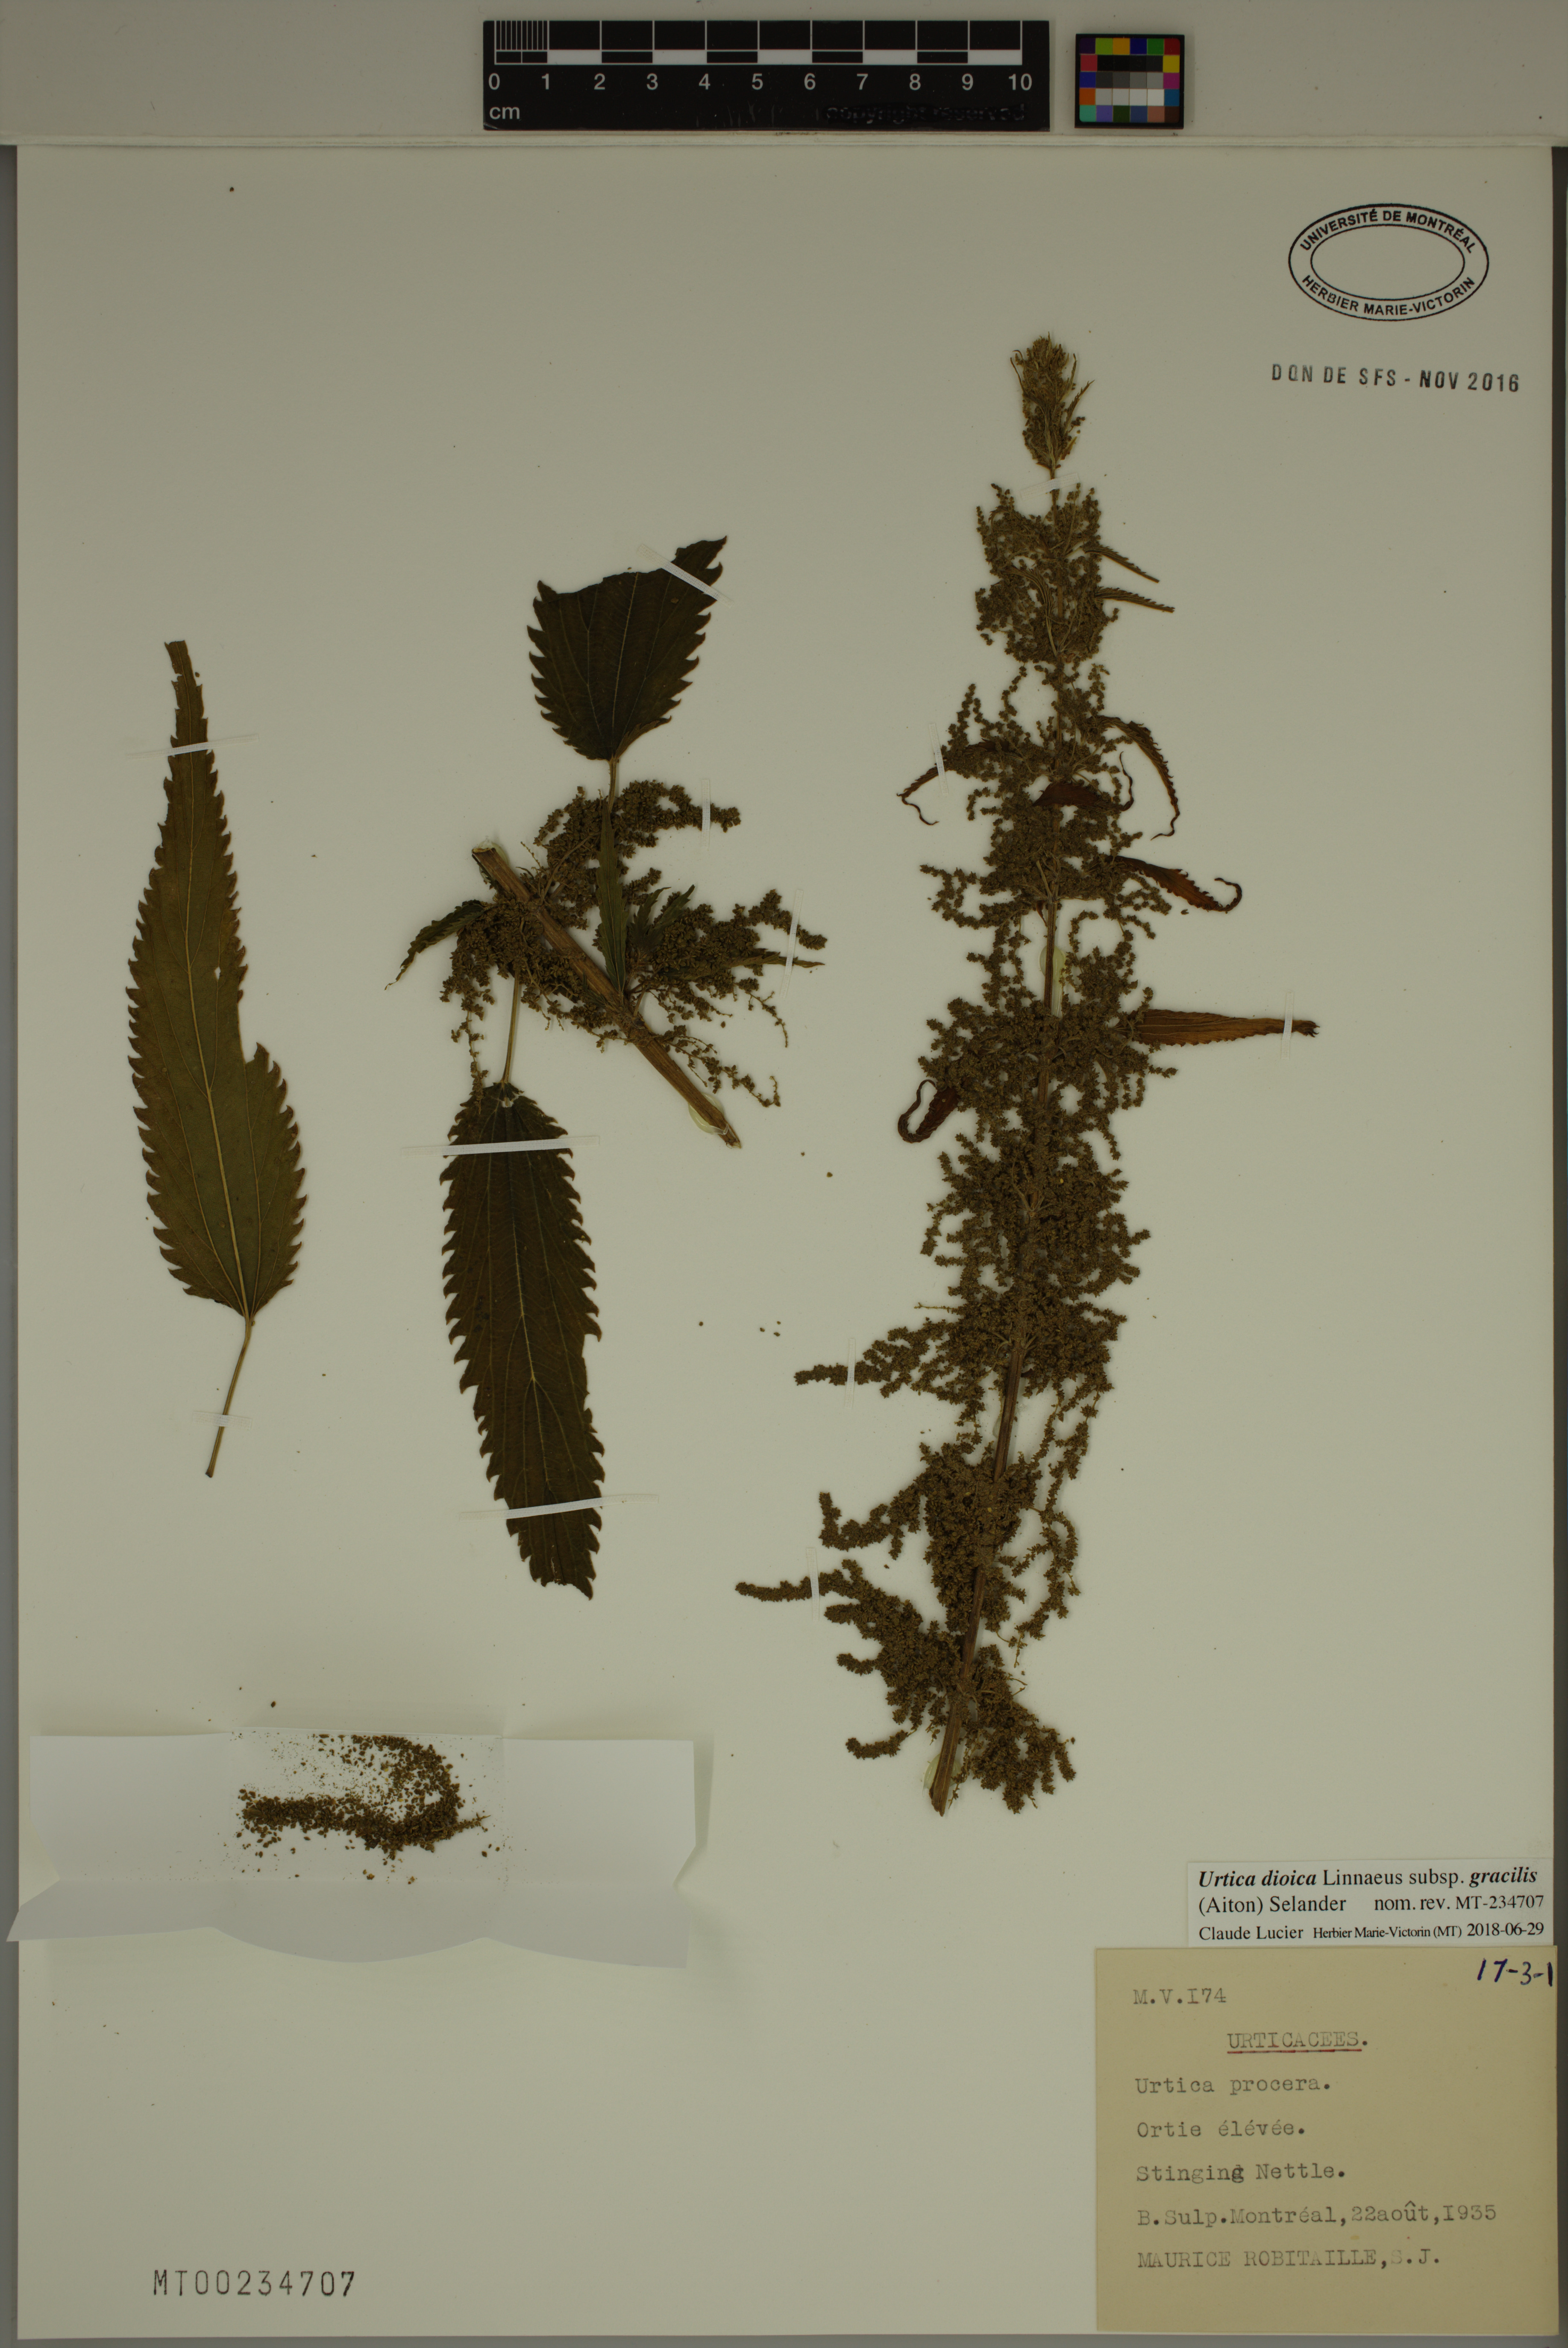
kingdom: Plantae
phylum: Tracheophyta
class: Magnoliopsida
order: Rosales
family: Urticaceae
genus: Urtica
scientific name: Urtica gracilis
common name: Slender stinging nettle
